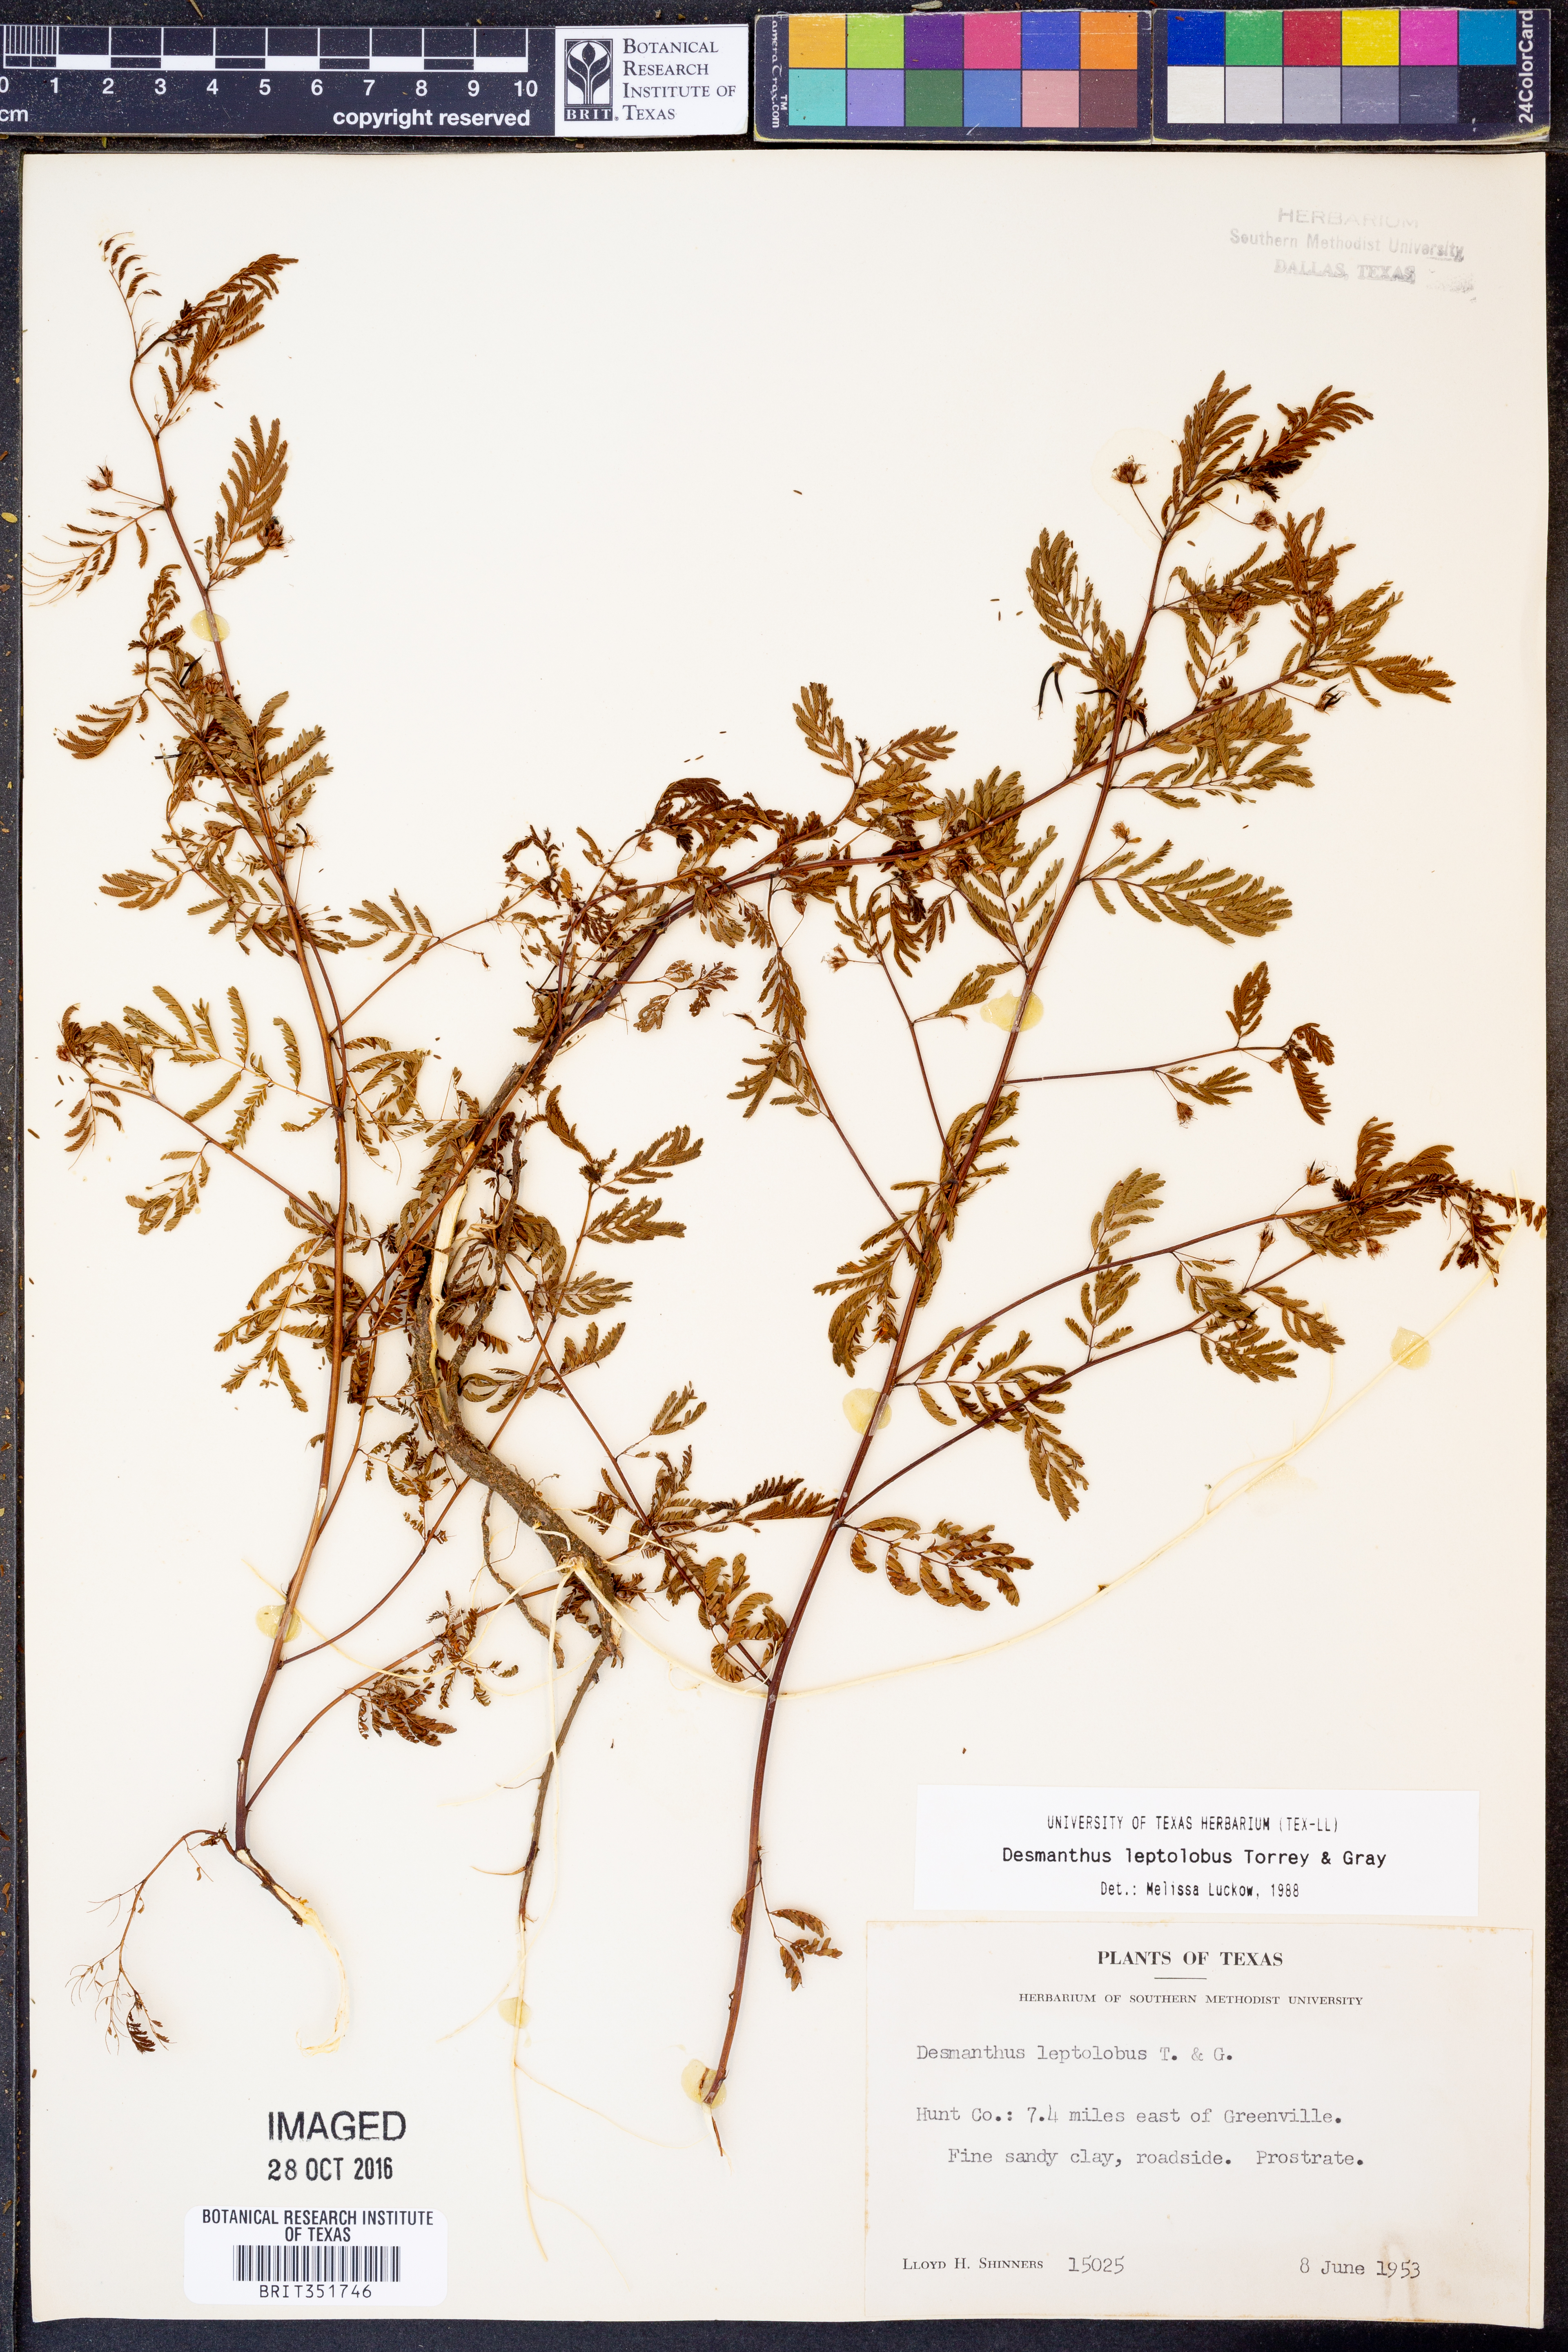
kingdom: Plantae
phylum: Tracheophyta
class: Magnoliopsida
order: Fabales
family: Fabaceae
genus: Desmanthus
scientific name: Desmanthus leptolobus
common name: Prairie-mimosa
